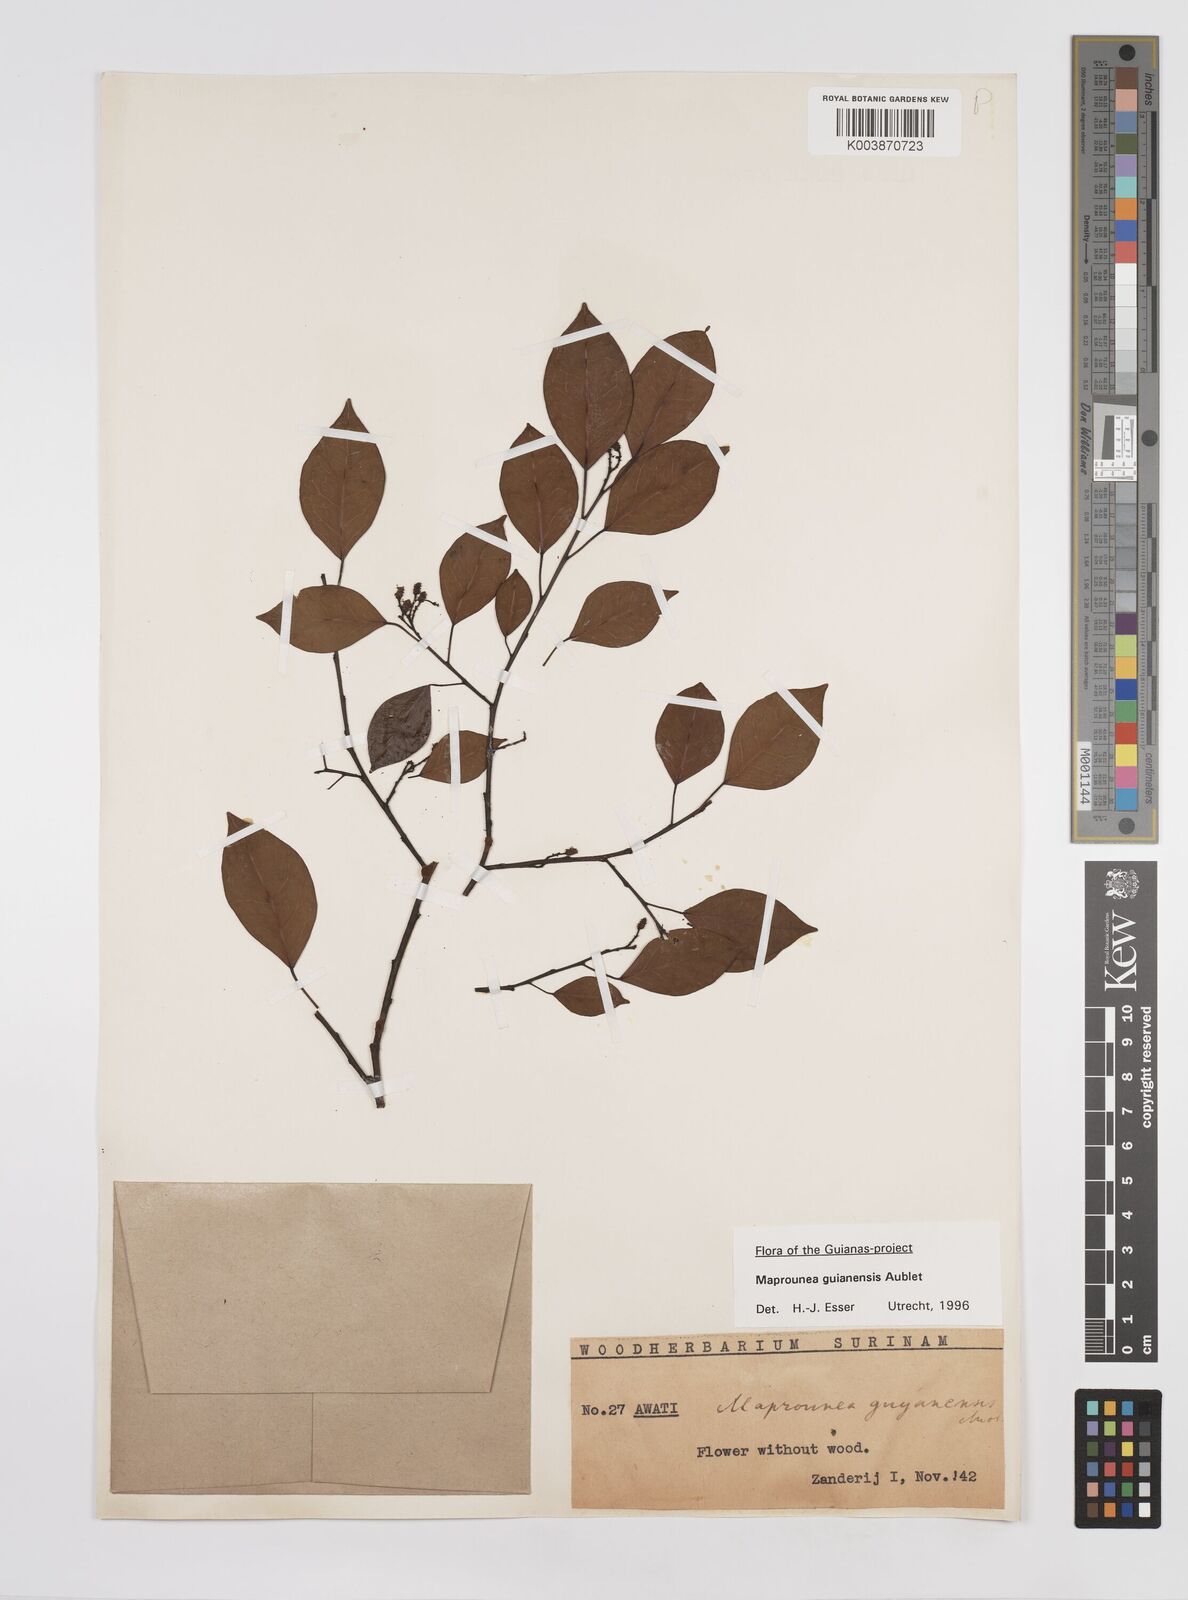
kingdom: Plantae
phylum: Tracheophyta
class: Magnoliopsida
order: Malpighiales
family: Euphorbiaceae
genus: Maprounea
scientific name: Maprounea guianensis
